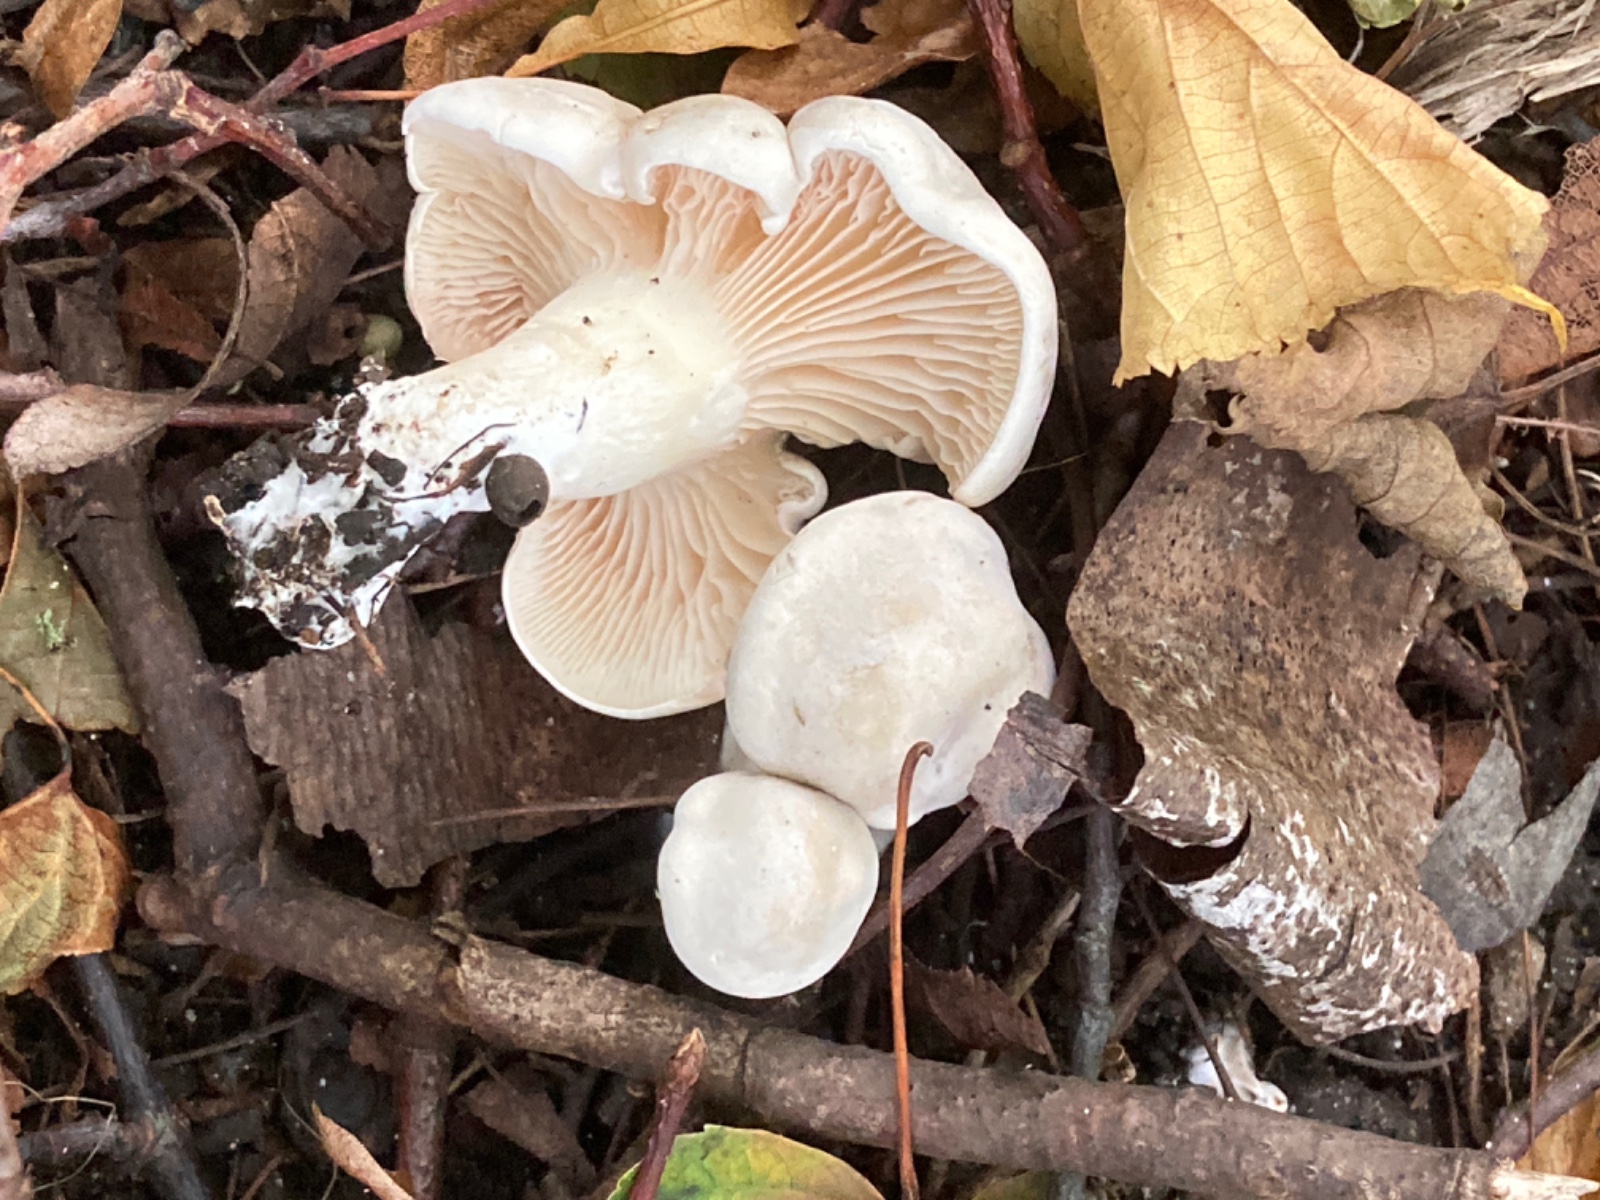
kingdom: Fungi
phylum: Basidiomycota
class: Agaricomycetes
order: Agaricales
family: Entolomataceae
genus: Clitopilus
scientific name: Clitopilus prunulus
